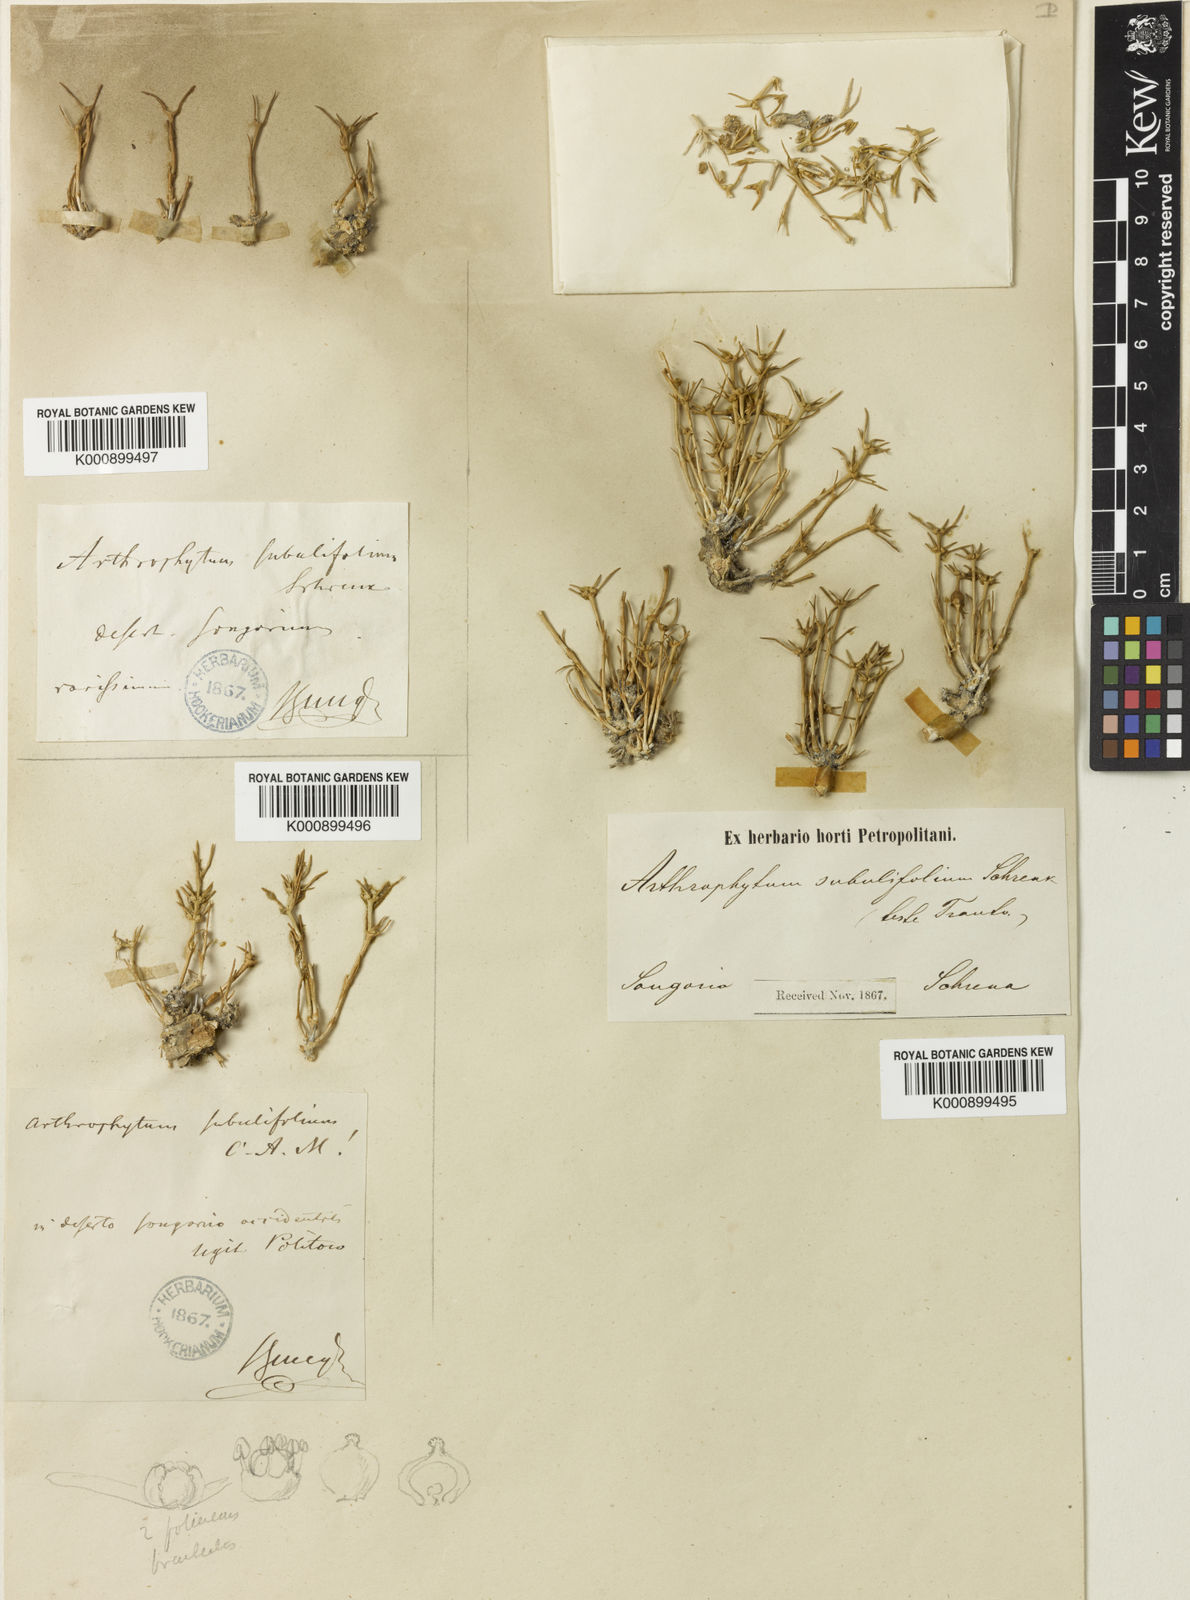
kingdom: Plantae
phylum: Tracheophyta
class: Magnoliopsida
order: Caryophyllales
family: Amaranthaceae
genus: Arthrophytum
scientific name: Arthrophytum subulifolium
